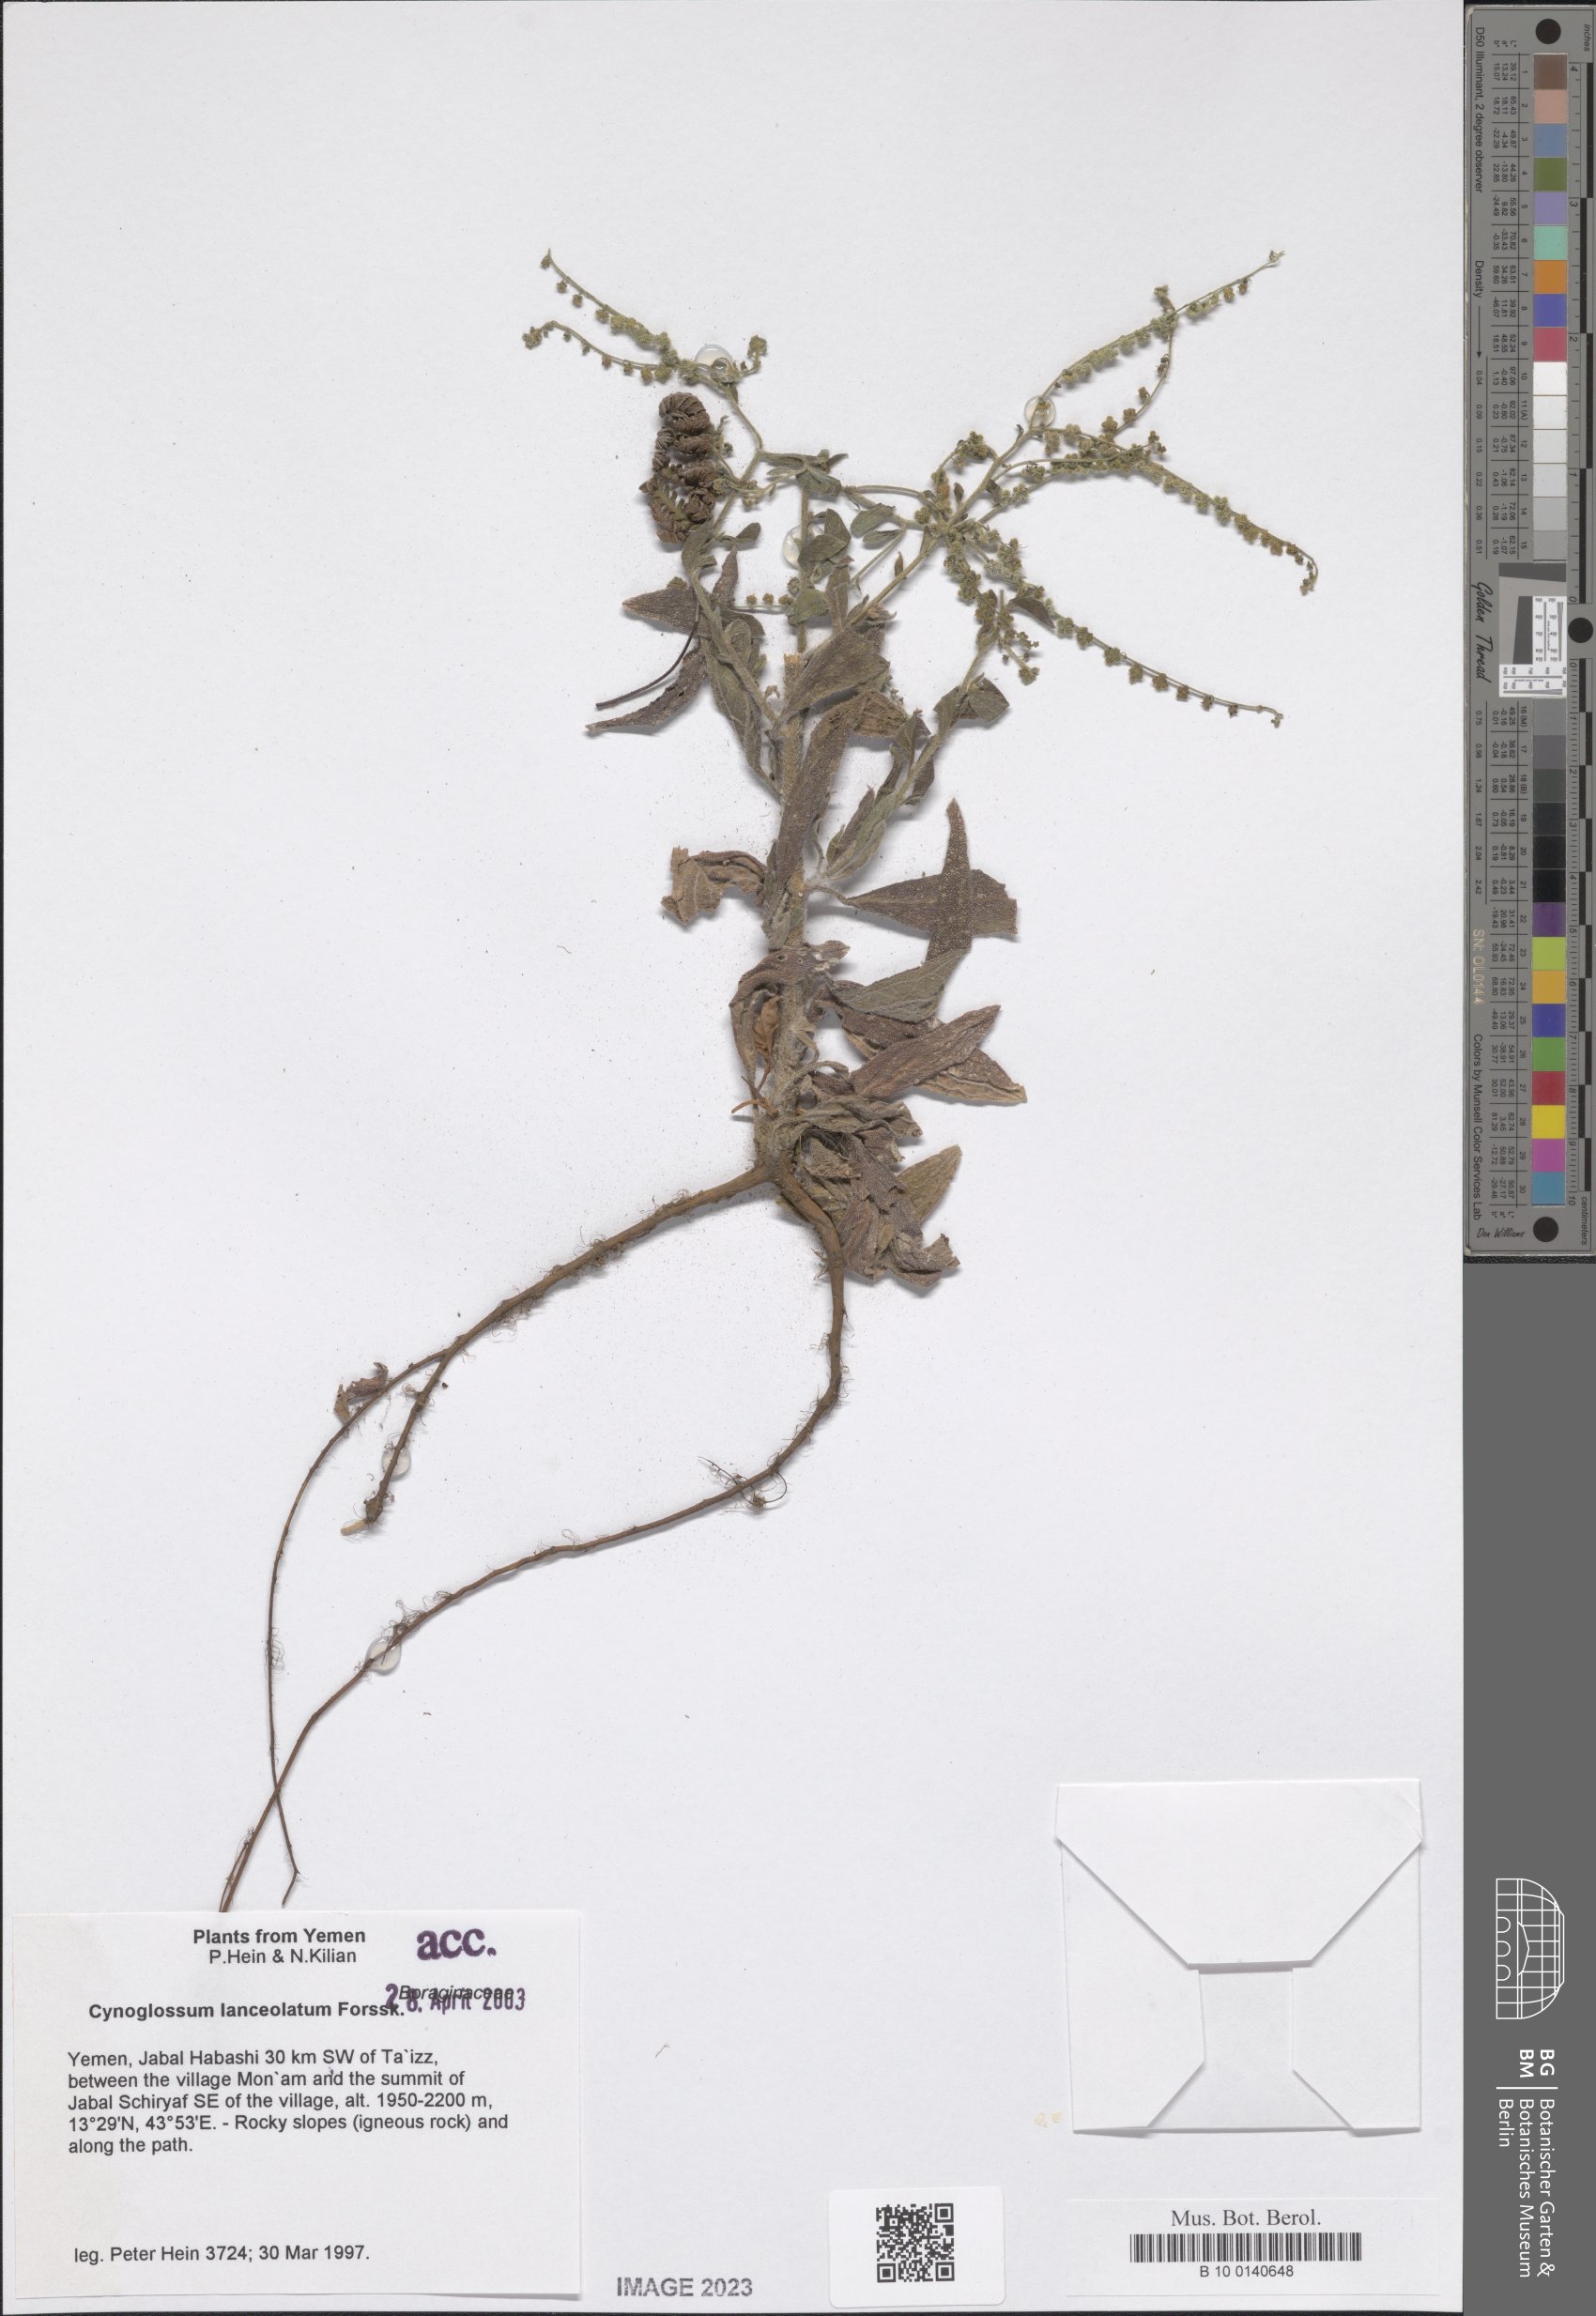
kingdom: Plantae
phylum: Tracheophyta
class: Magnoliopsida
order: Boraginales
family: Boraginaceae
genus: Paracynoglossum
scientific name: Paracynoglossum lanceolatum
